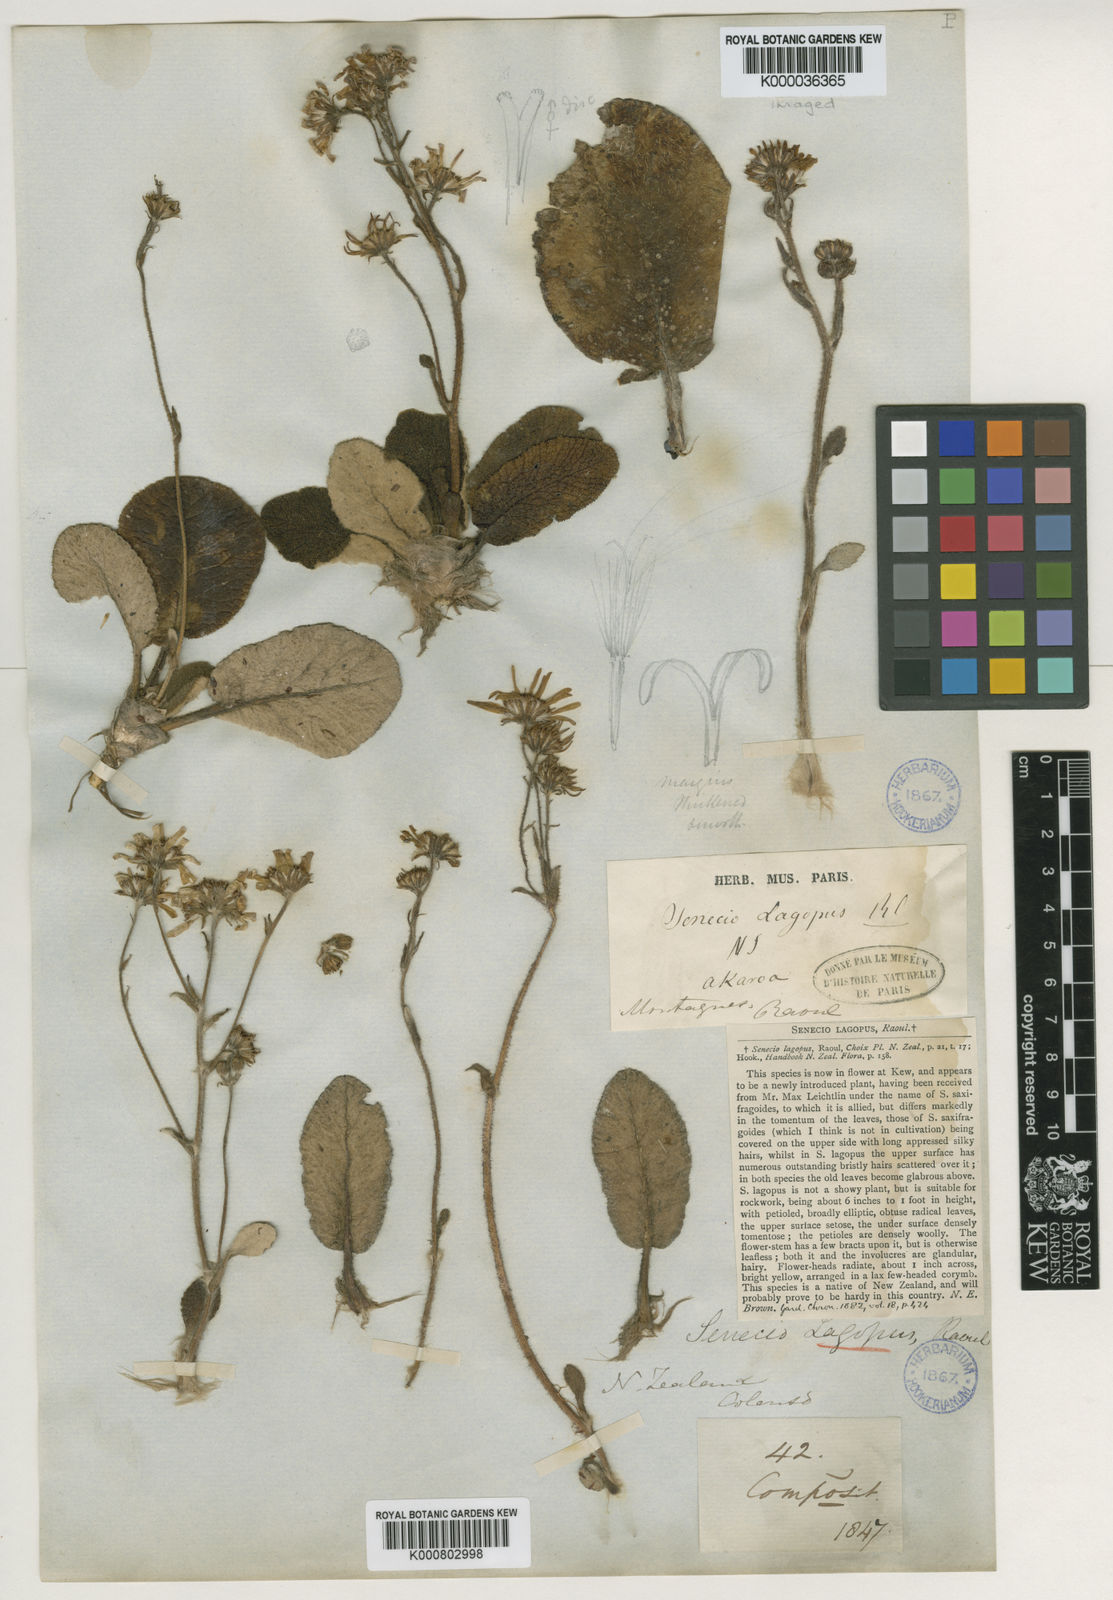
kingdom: Plantae
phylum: Tracheophyta
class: Magnoliopsida
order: Asterales
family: Asteraceae
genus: Brachyglottis
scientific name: Brachyglottis haastii
